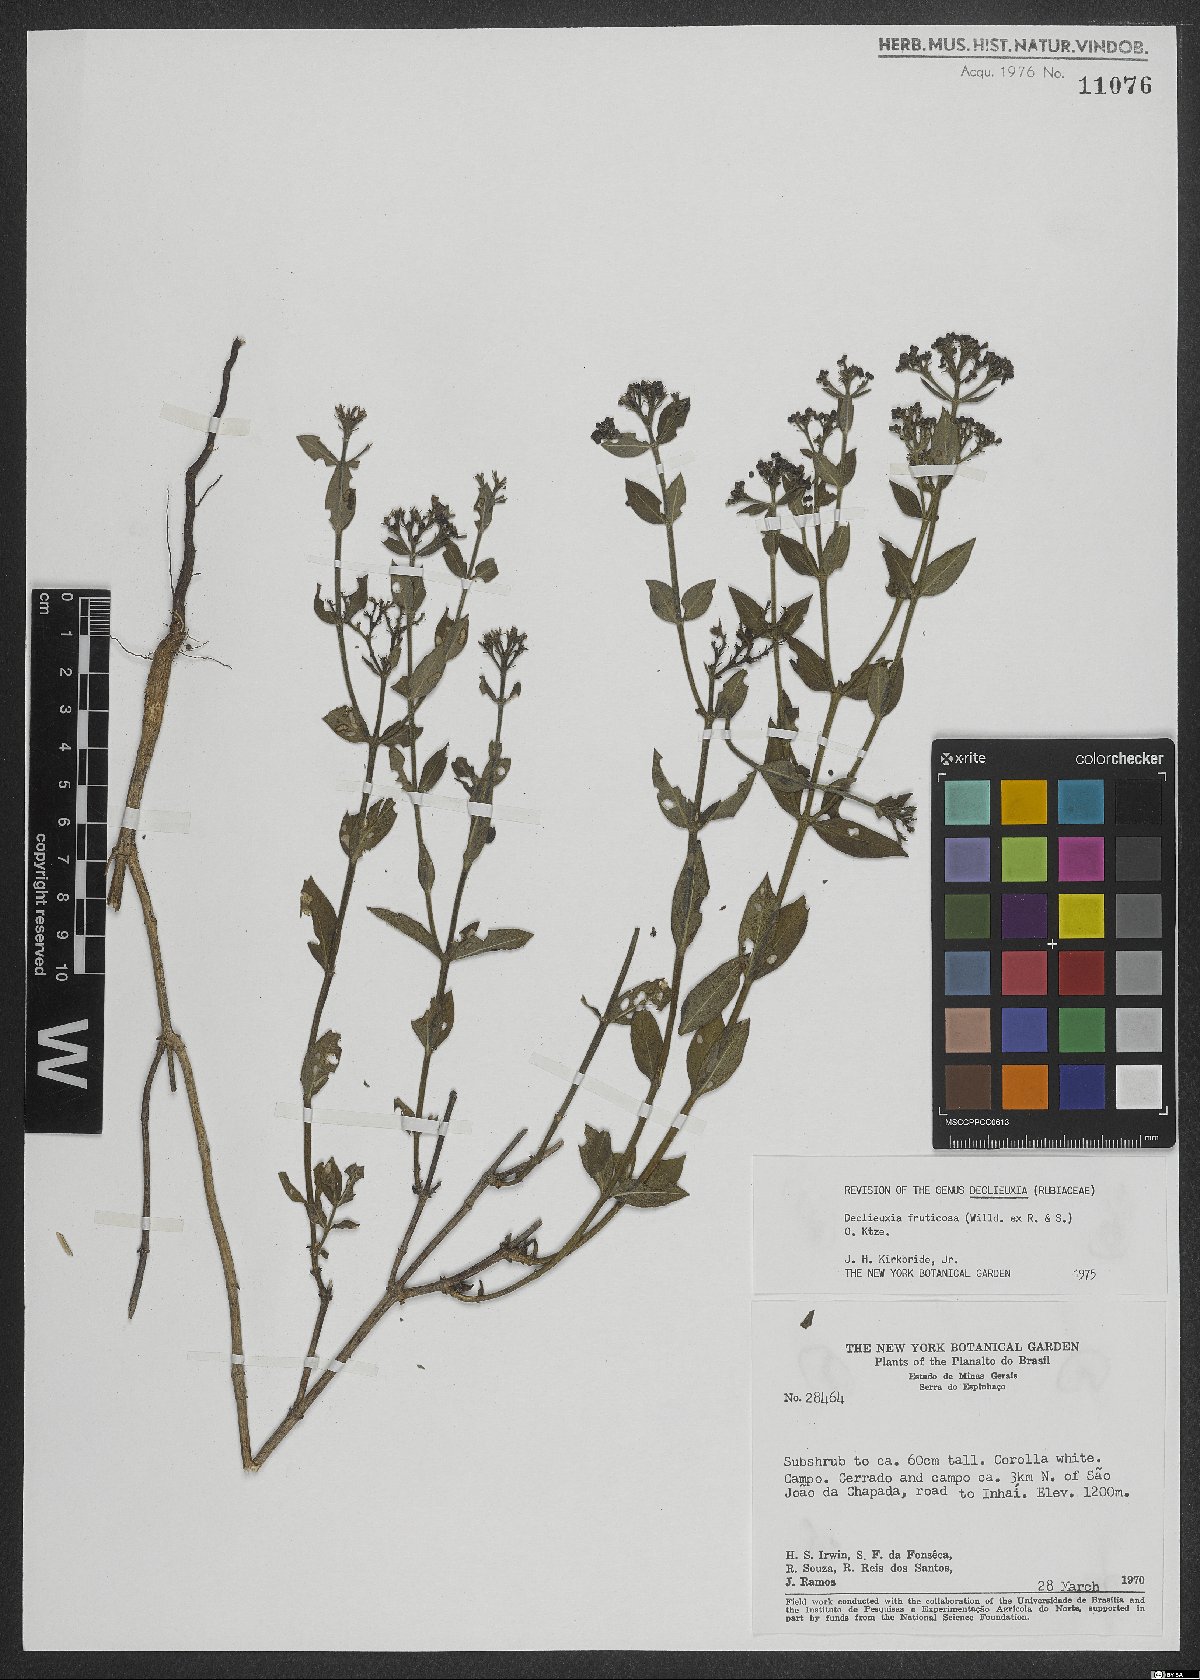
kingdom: Plantae
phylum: Tracheophyta
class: Magnoliopsida
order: Gentianales
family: Rubiaceae
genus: Declieuxia
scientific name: Declieuxia fruticosa
